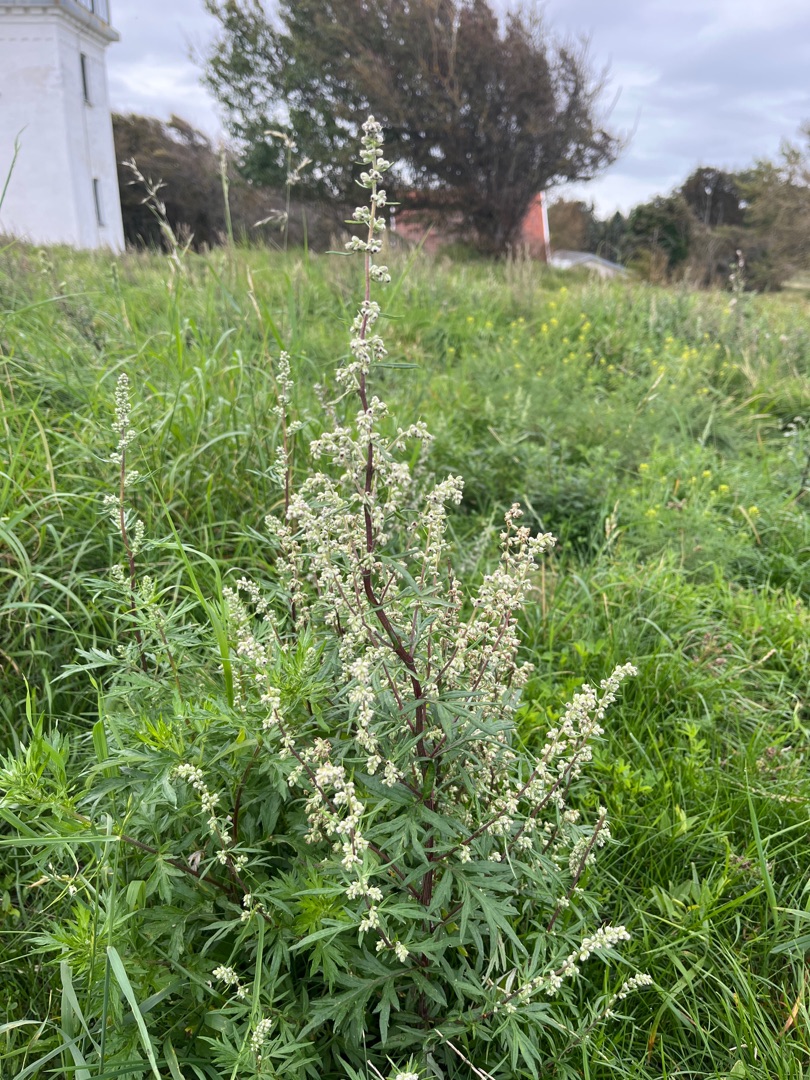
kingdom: Plantae
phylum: Tracheophyta
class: Magnoliopsida
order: Asterales
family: Asteraceae
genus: Artemisia
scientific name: Artemisia vulgaris
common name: Grå-bynke
